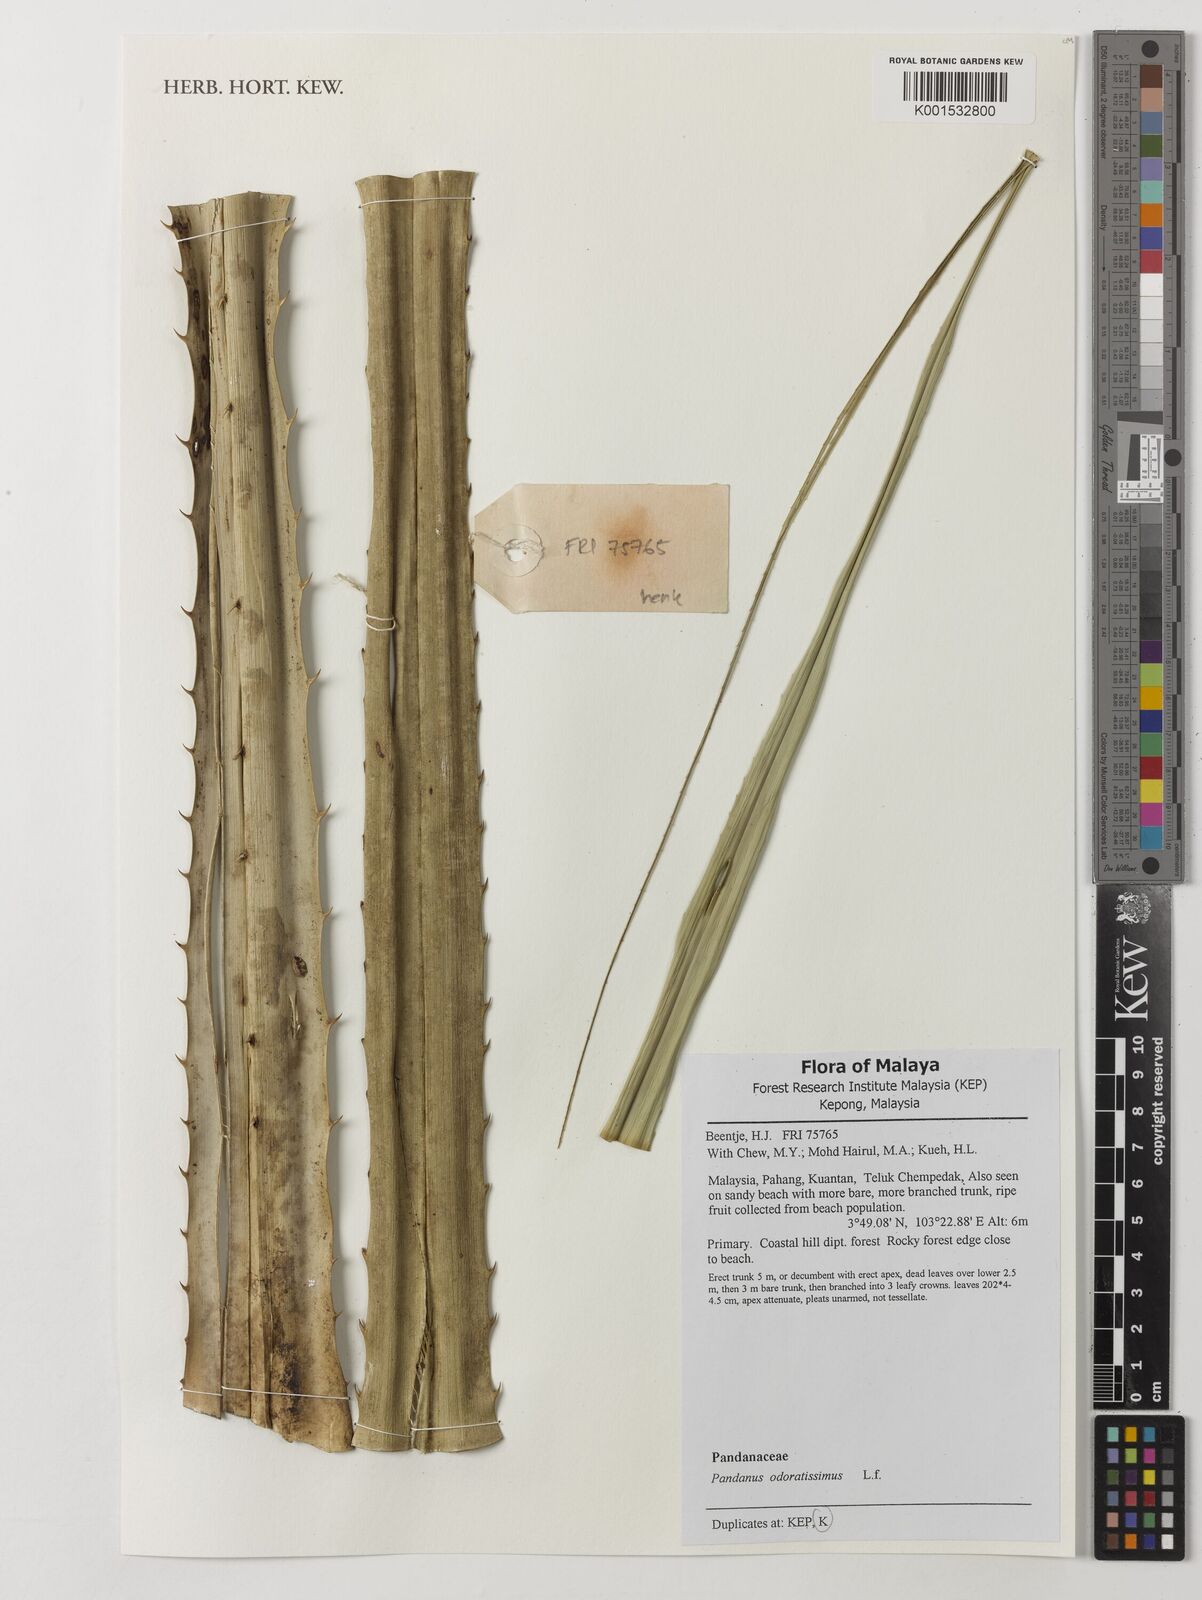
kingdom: Plantae
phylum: Tracheophyta
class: Liliopsida
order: Pandanales
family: Pandanaceae
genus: Pandanus
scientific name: Pandanus odorifer
